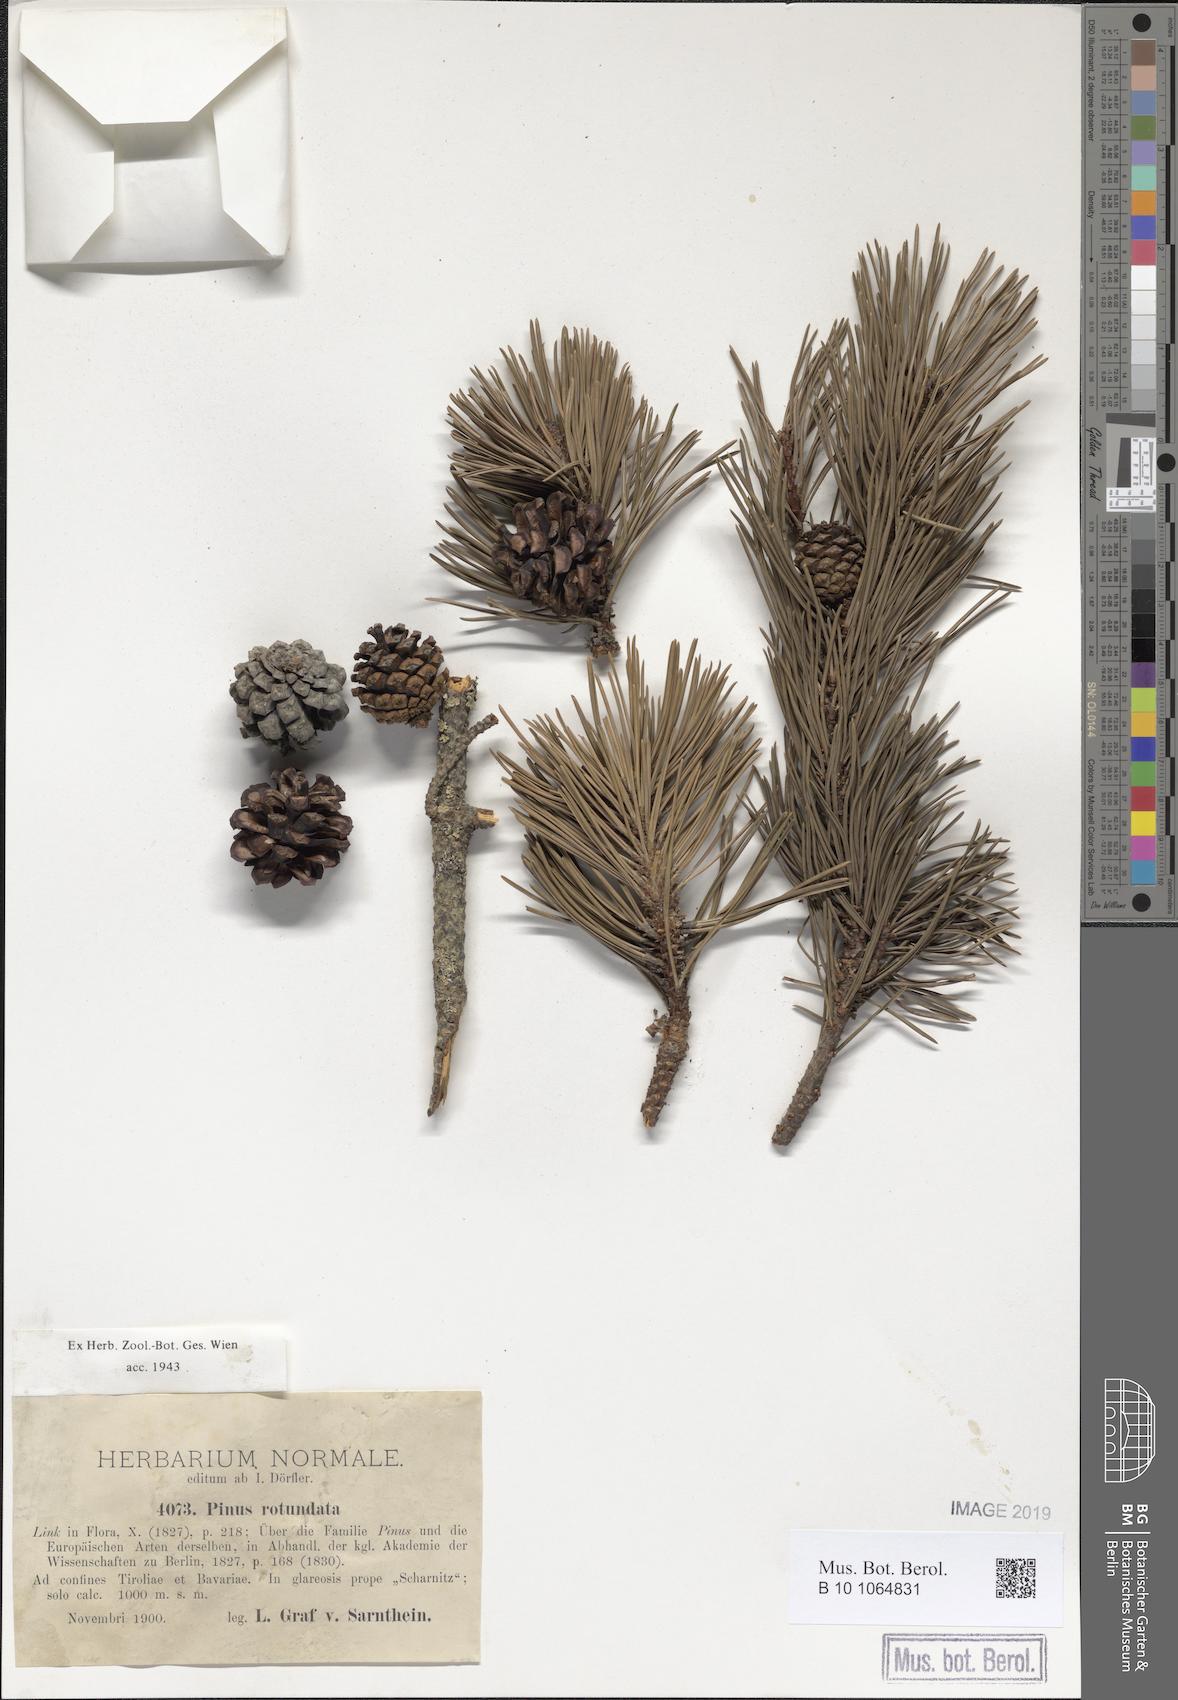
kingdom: Plantae
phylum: Tracheophyta
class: Pinopsida
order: Pinales
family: Pinaceae
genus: Pinus
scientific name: Pinus mugo
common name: Mugo pine
